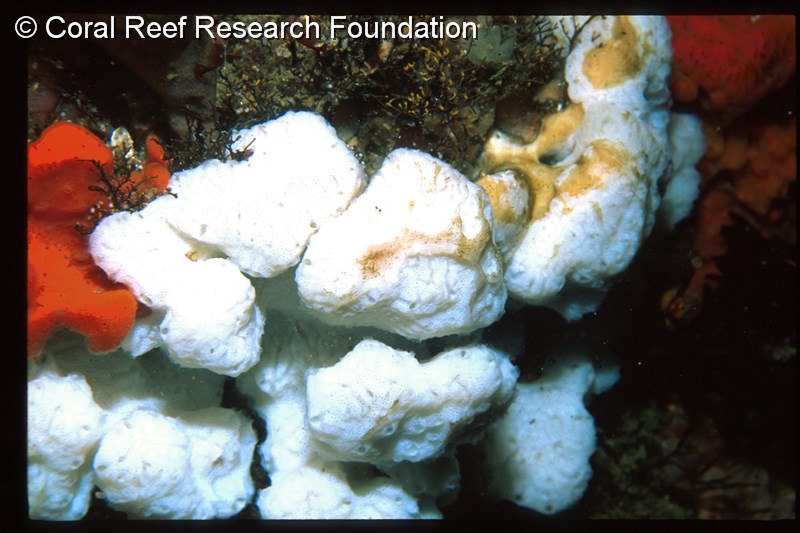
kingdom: Animalia
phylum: Chordata
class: Ascidiacea
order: Aplousobranchia
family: Polyclinidae
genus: Synoicum
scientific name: Synoicum
